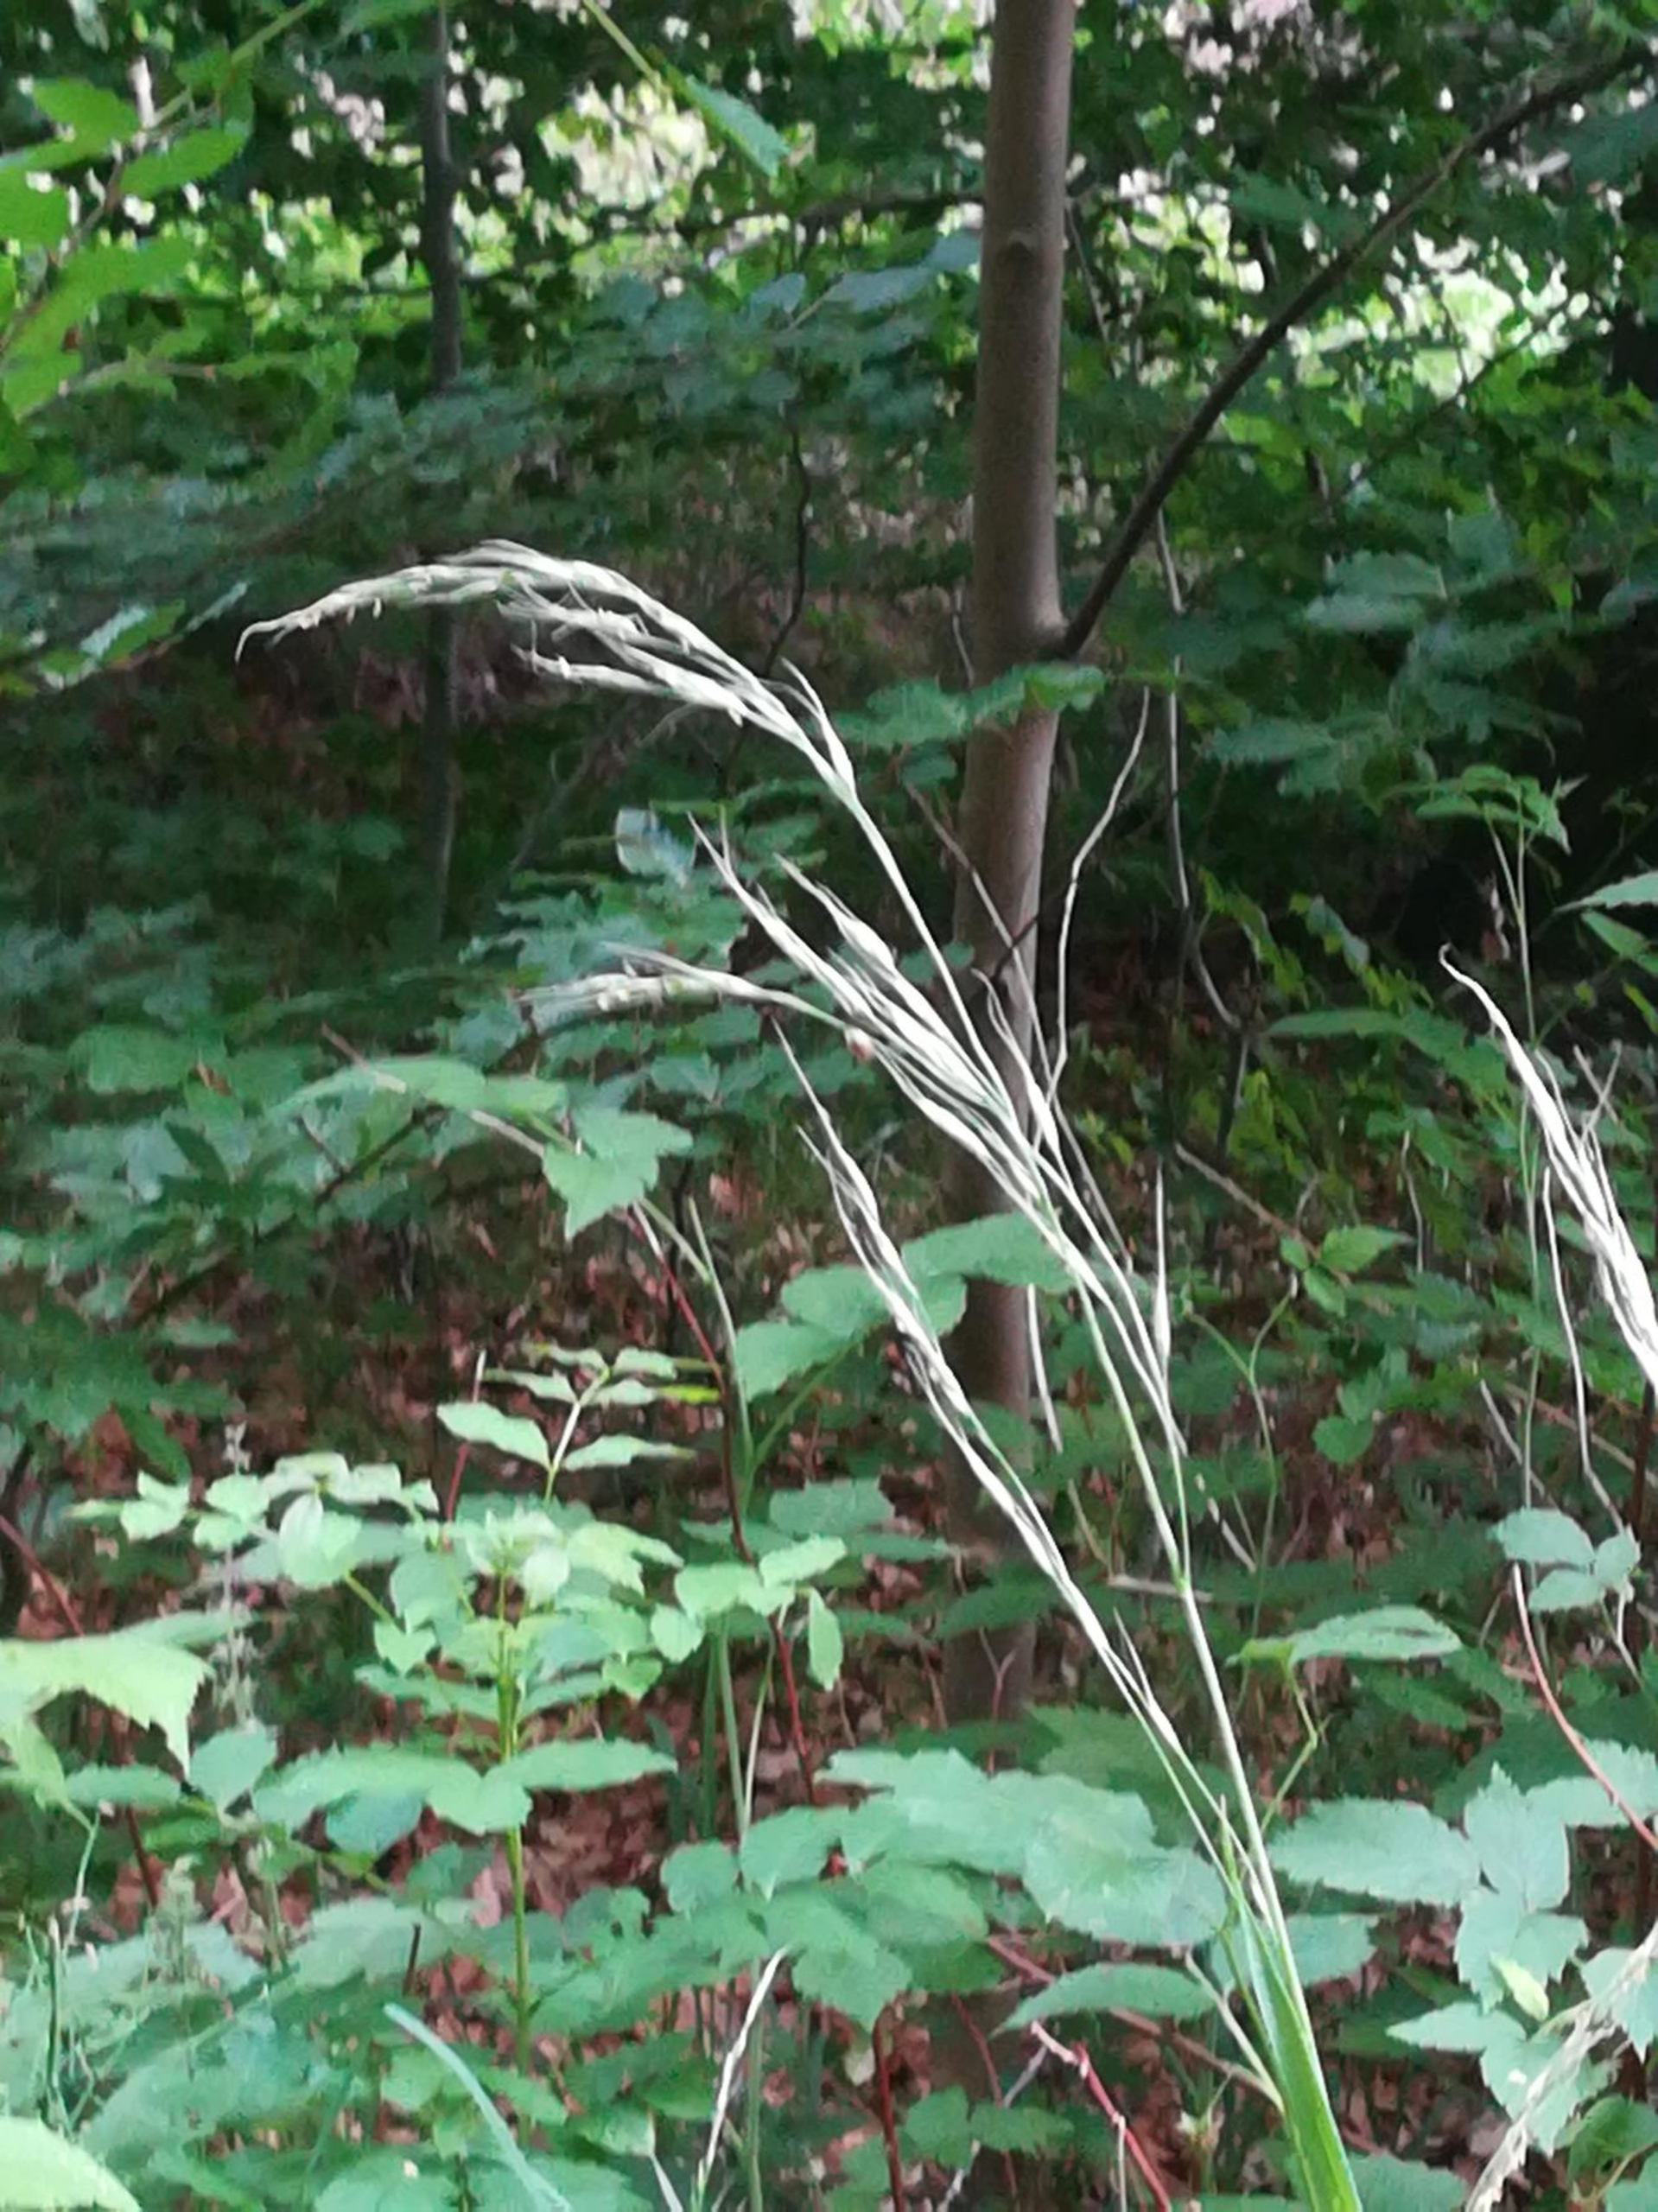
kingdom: Plantae
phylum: Tracheophyta
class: Liliopsida
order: Poales
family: Poaceae
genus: Lolium
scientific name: Lolium giganteum
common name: Kæmpe-svingel
